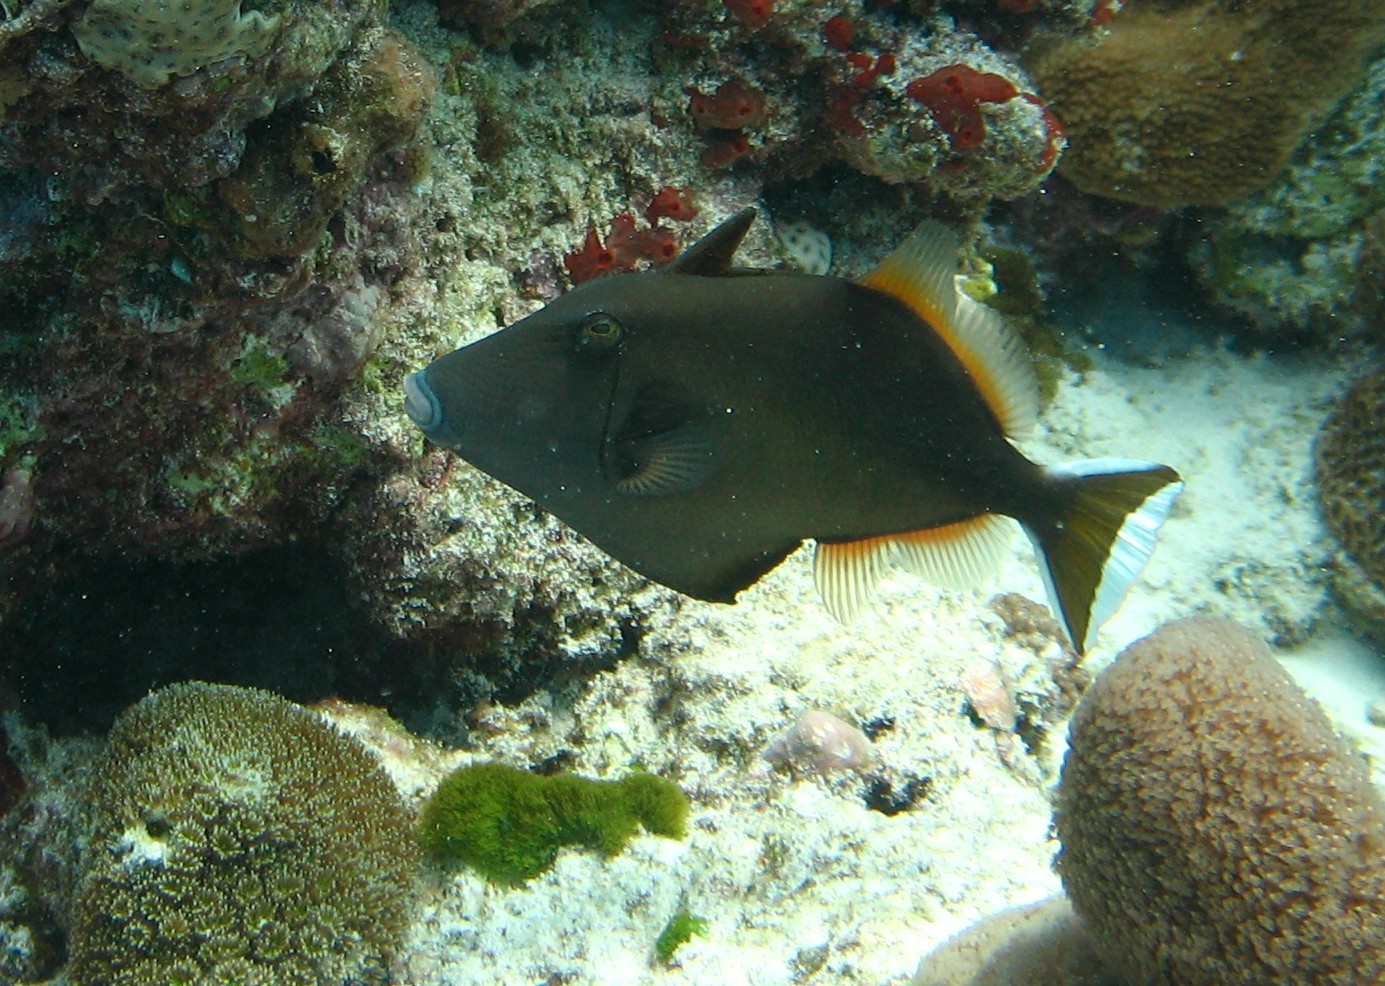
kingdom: Animalia
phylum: Chordata
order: Tetraodontiformes
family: Balistidae
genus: Sufflamen
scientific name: Sufflamen chrysopterum
